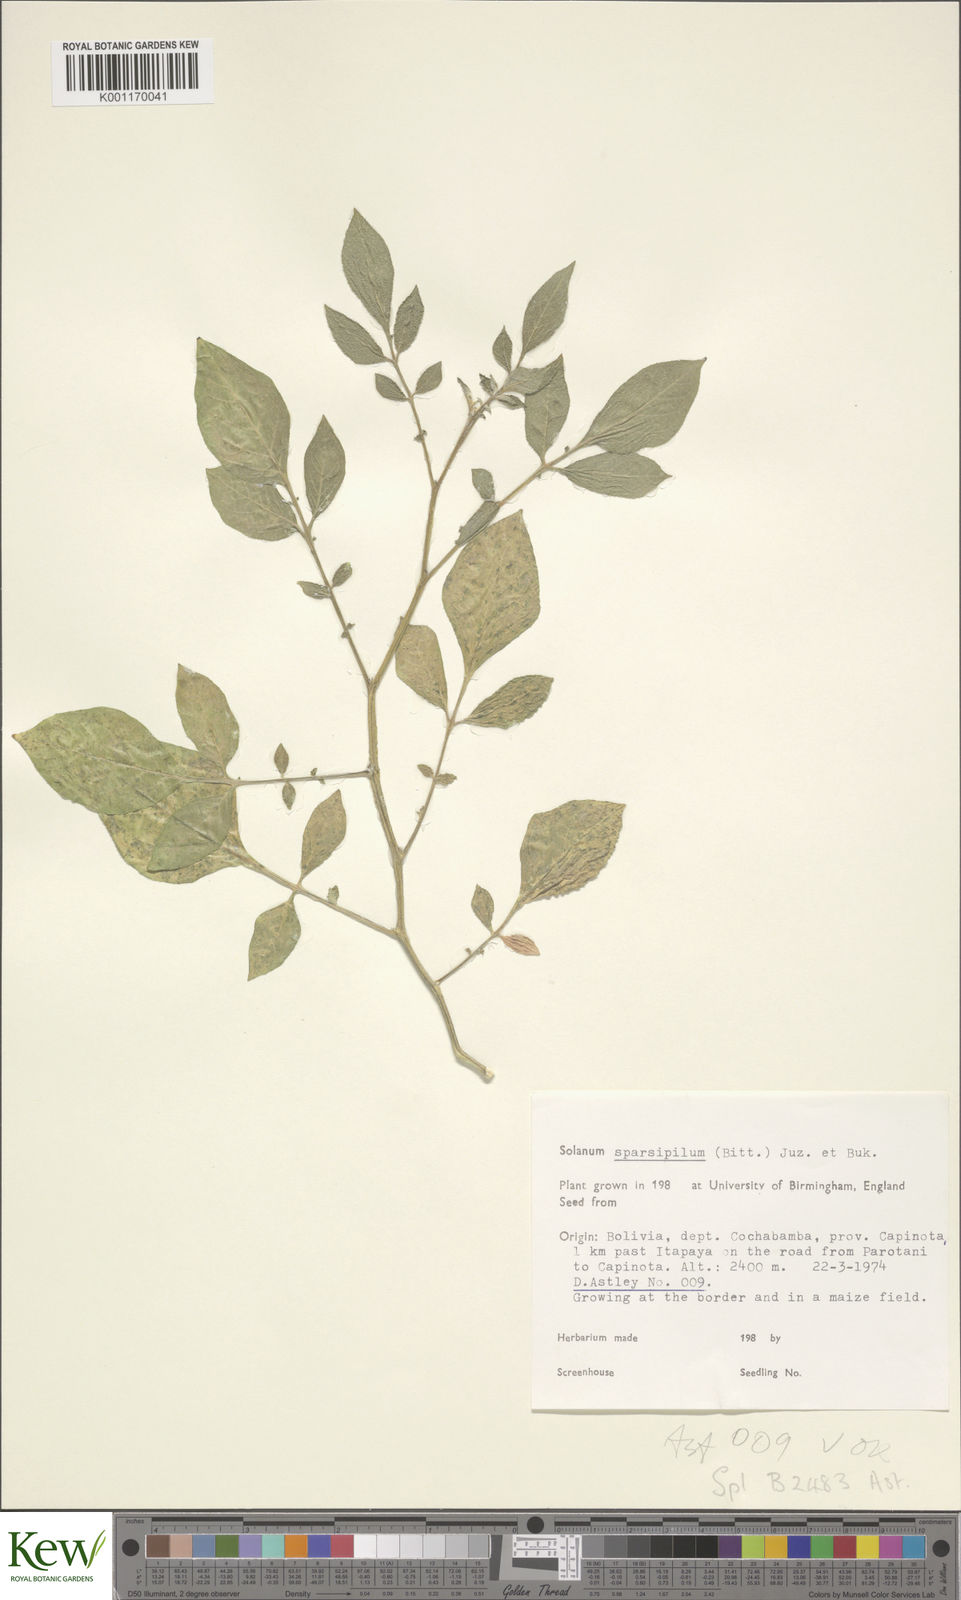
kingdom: Plantae
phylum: Tracheophyta
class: Magnoliopsida
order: Solanales
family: Solanaceae
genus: Solanum
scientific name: Solanum brevicaule
